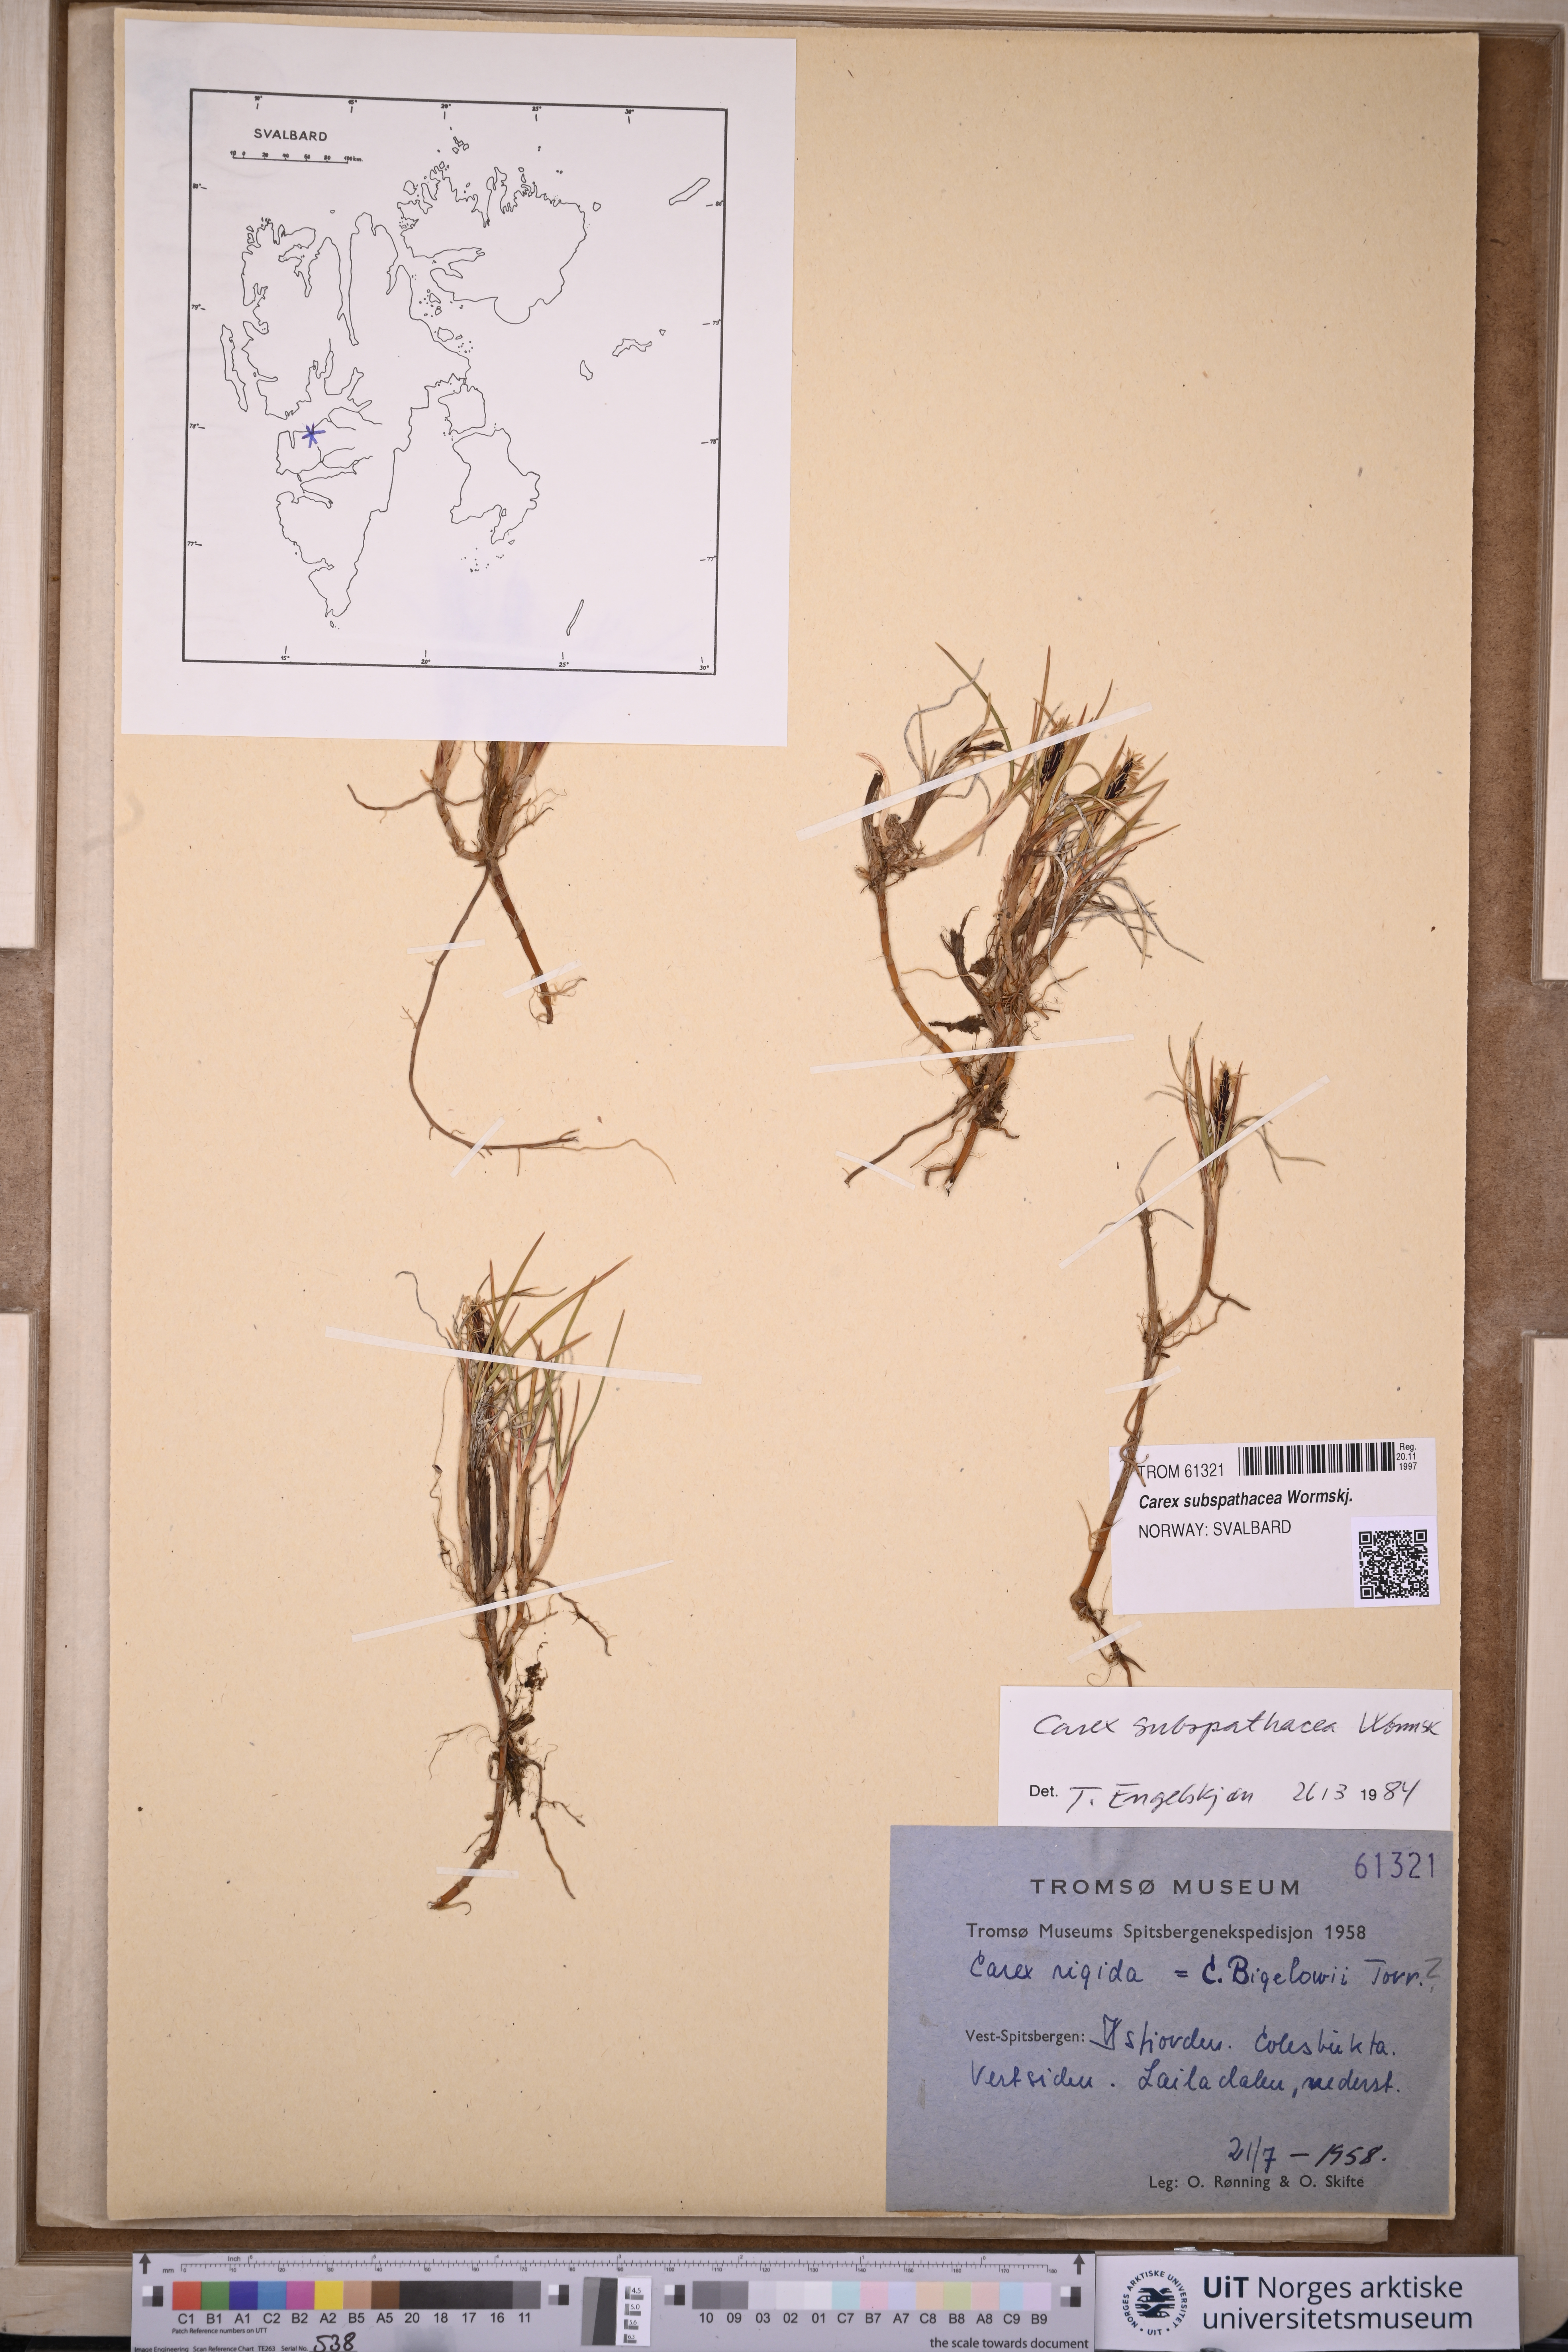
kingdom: Plantae
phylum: Tracheophyta
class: Liliopsida
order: Poales
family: Cyperaceae
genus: Carex
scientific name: Carex subspathacea
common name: Hoppner's sedge
